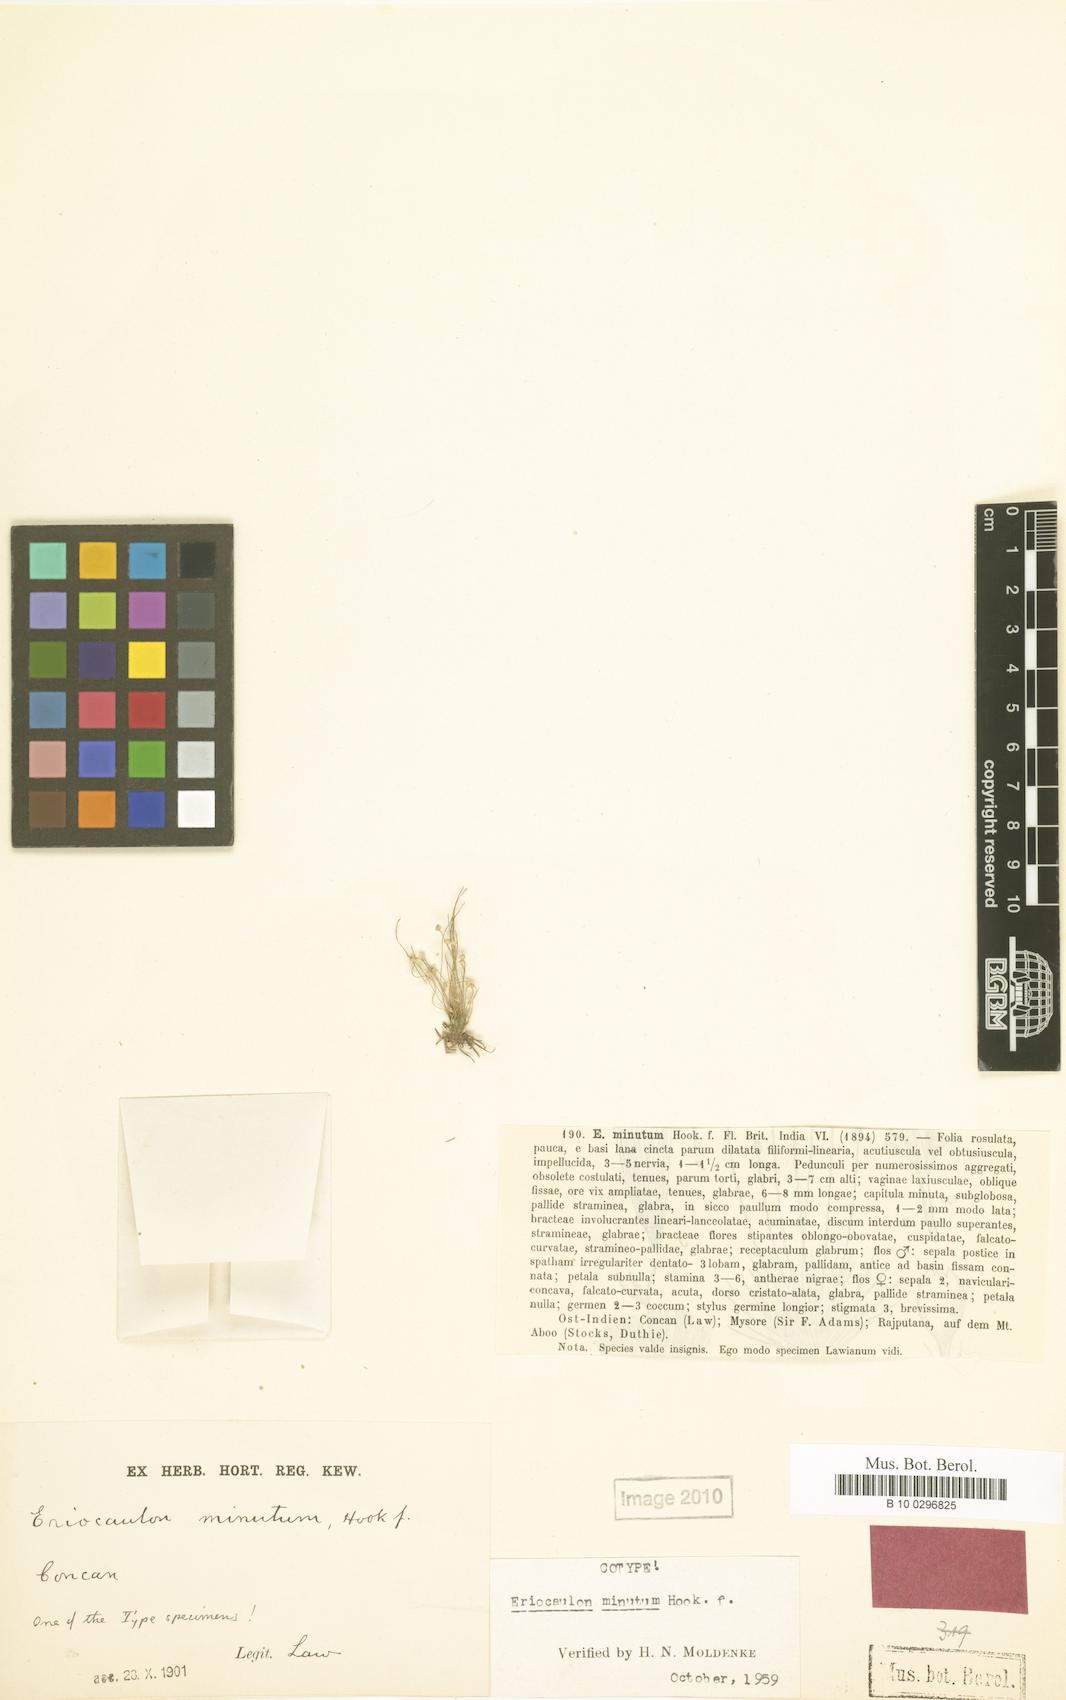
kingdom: Plantae
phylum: Tracheophyta
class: Liliopsida
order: Poales
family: Eriocaulaceae
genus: Eriocaulon
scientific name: Eriocaulon minutum
